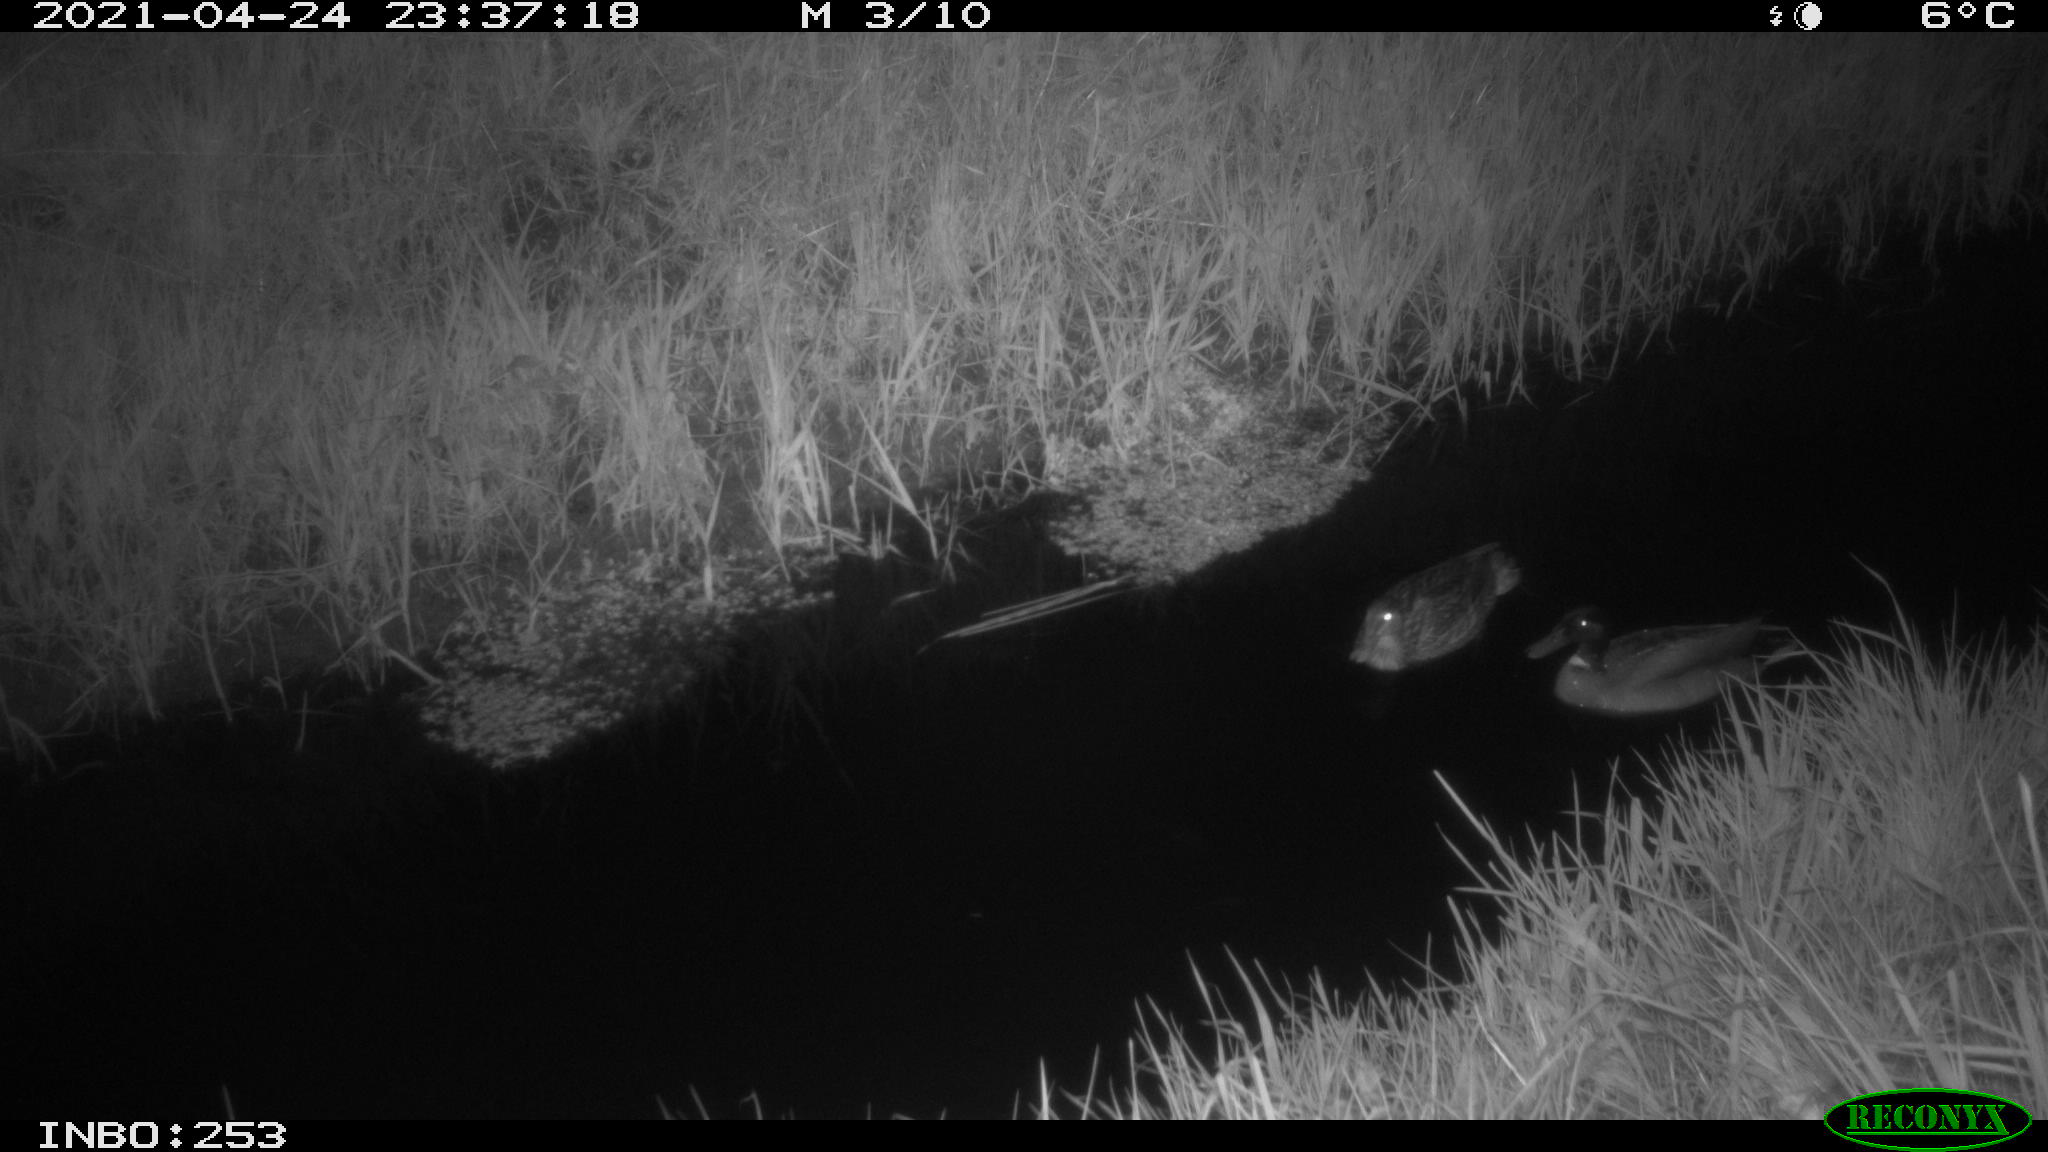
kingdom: Animalia
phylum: Chordata
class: Aves
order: Anseriformes
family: Anatidae
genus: Anas
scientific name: Anas platyrhynchos
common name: Mallard
